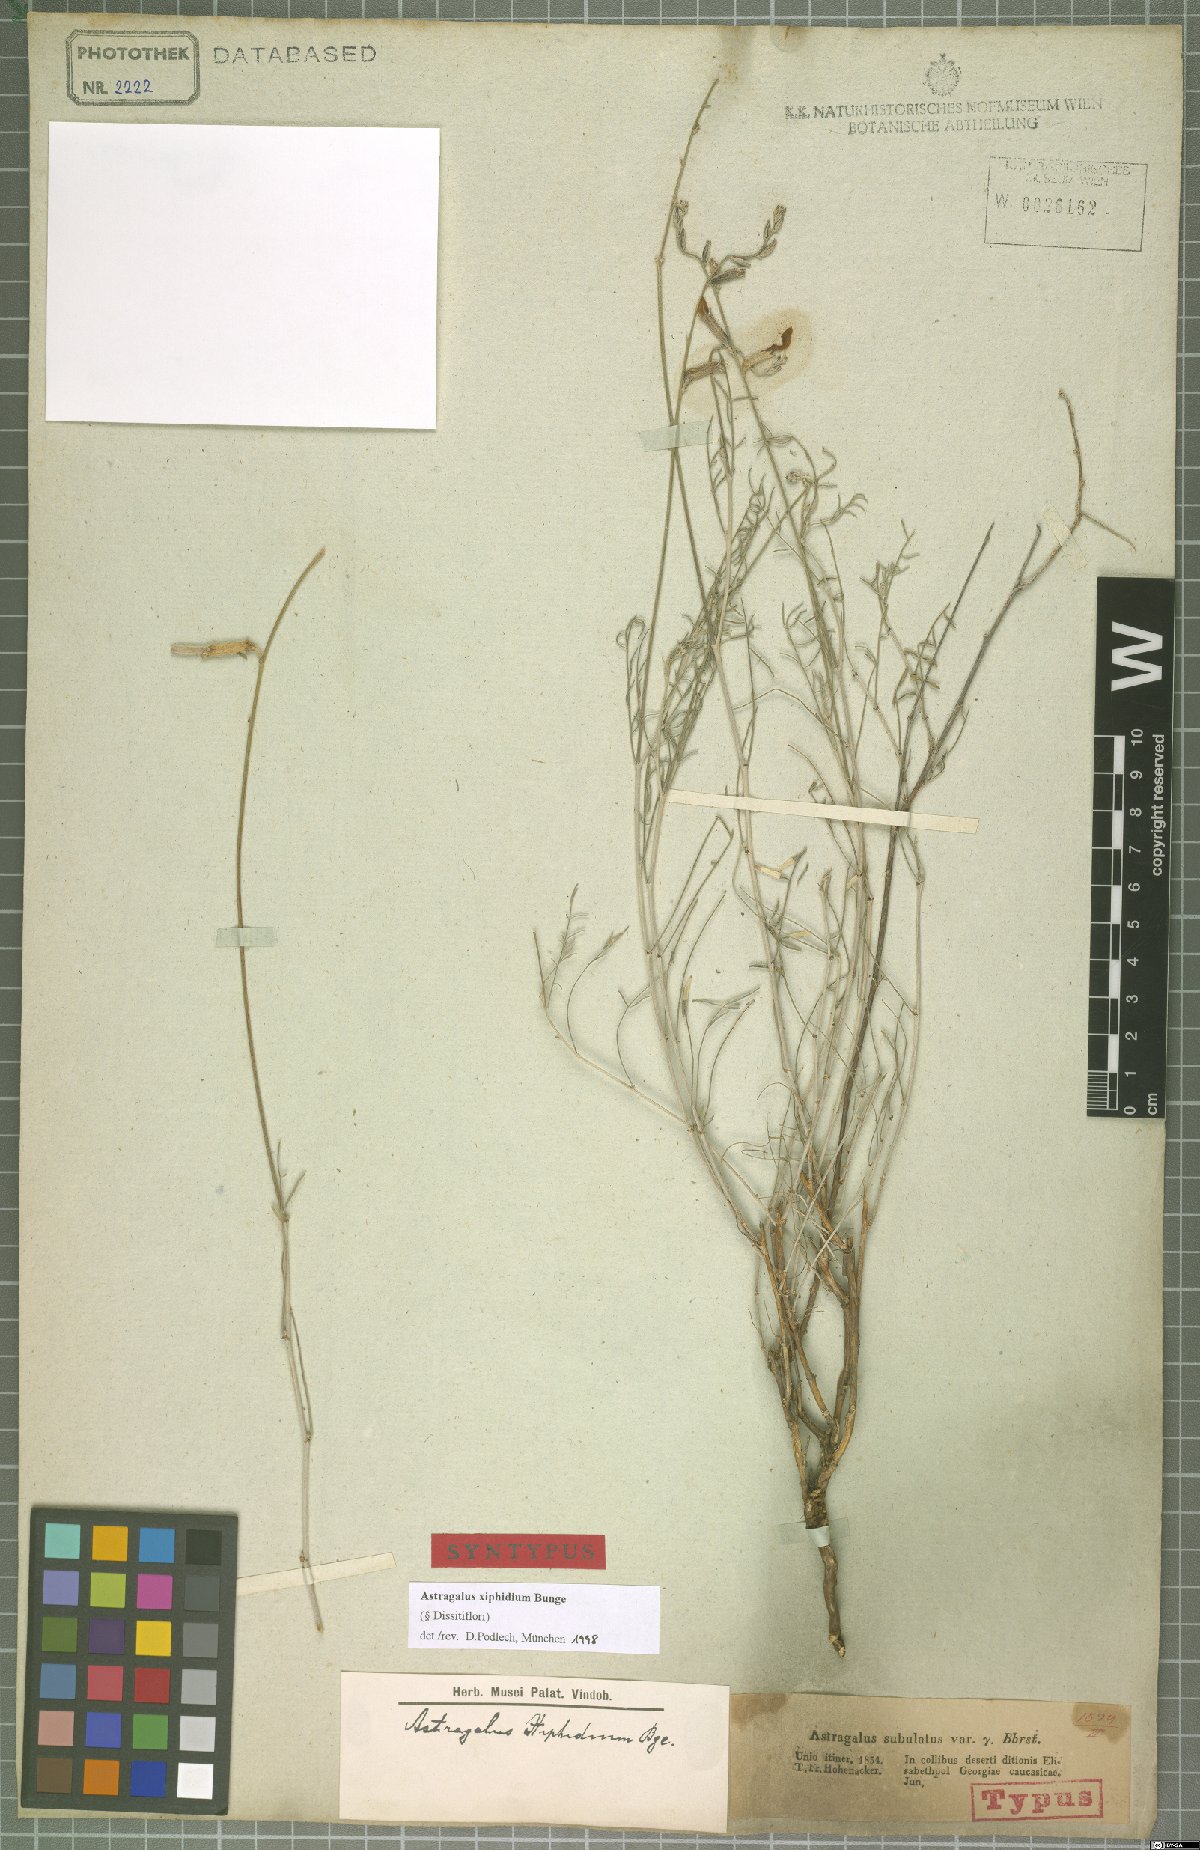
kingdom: Plantae
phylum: Tracheophyta
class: Magnoliopsida
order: Fabales
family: Fabaceae
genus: Astragalus
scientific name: Astragalus xiphidium
